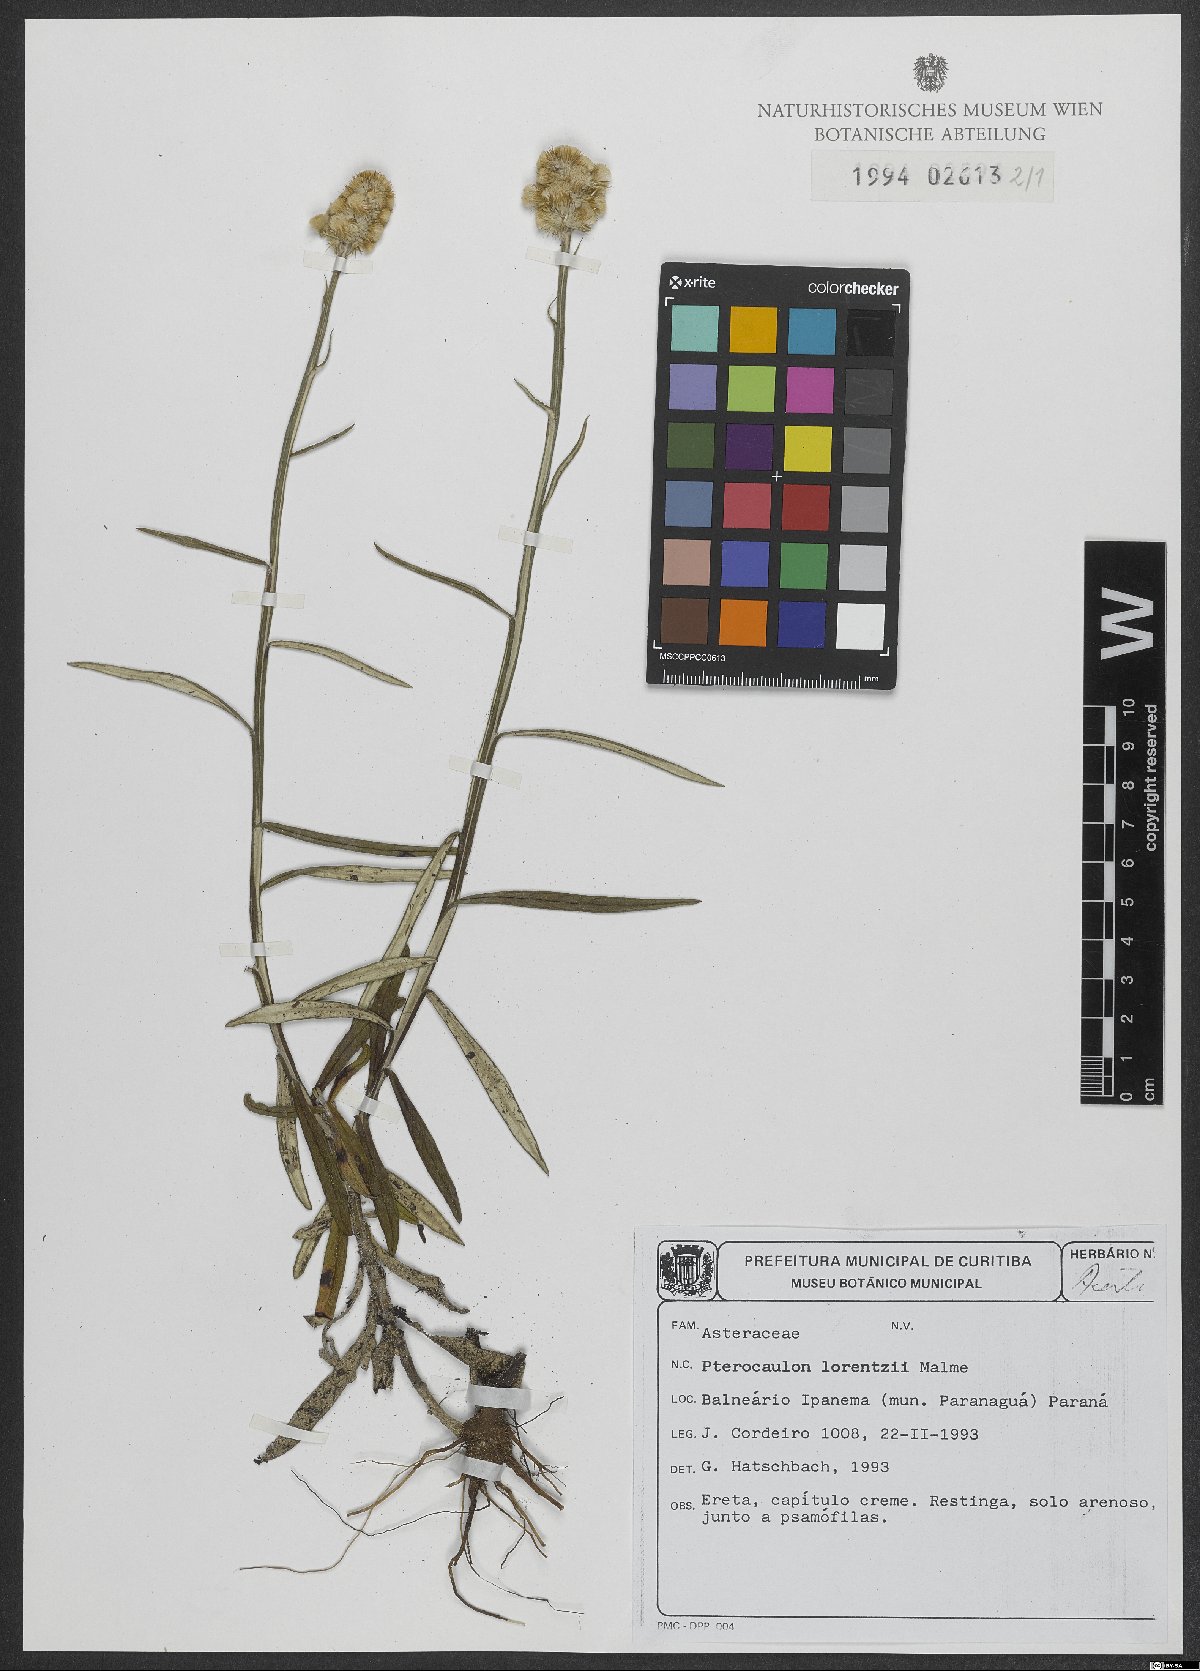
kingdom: Plantae
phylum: Tracheophyta
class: Magnoliopsida
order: Asterales
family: Asteraceae
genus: Pterocaulon
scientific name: Pterocaulon lorentzii
